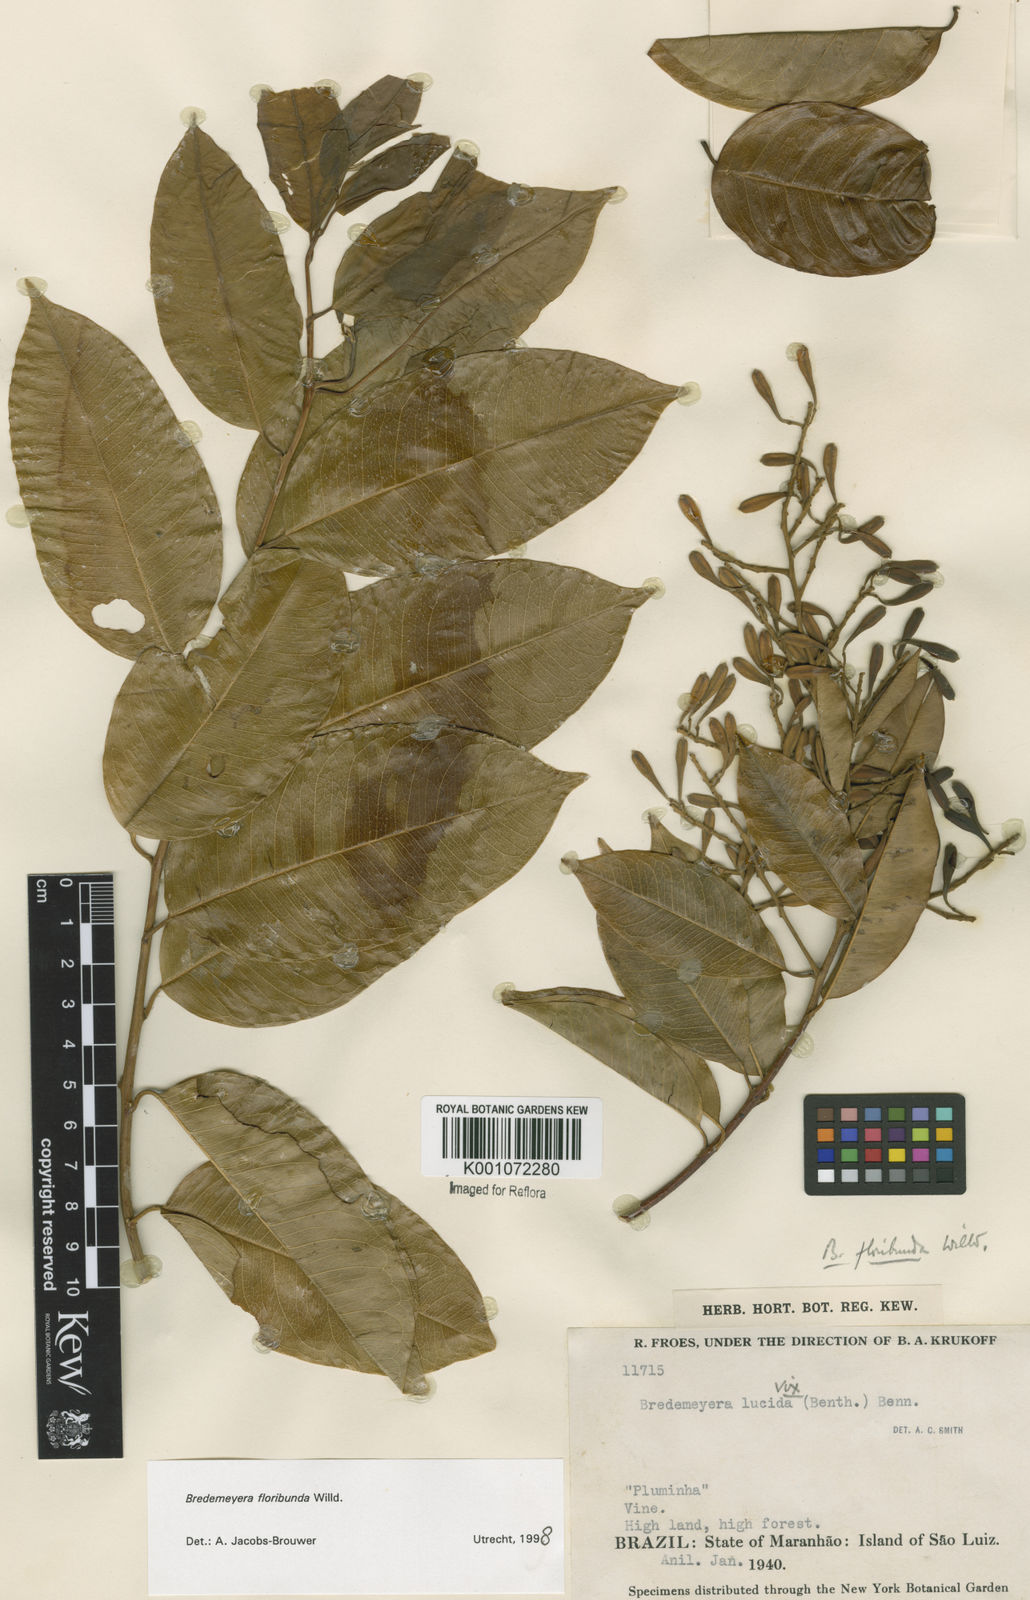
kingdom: Plantae
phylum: Tracheophyta
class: Magnoliopsida
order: Fabales
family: Polygalaceae
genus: Bredemeyera
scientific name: Bredemeyera floribunda
